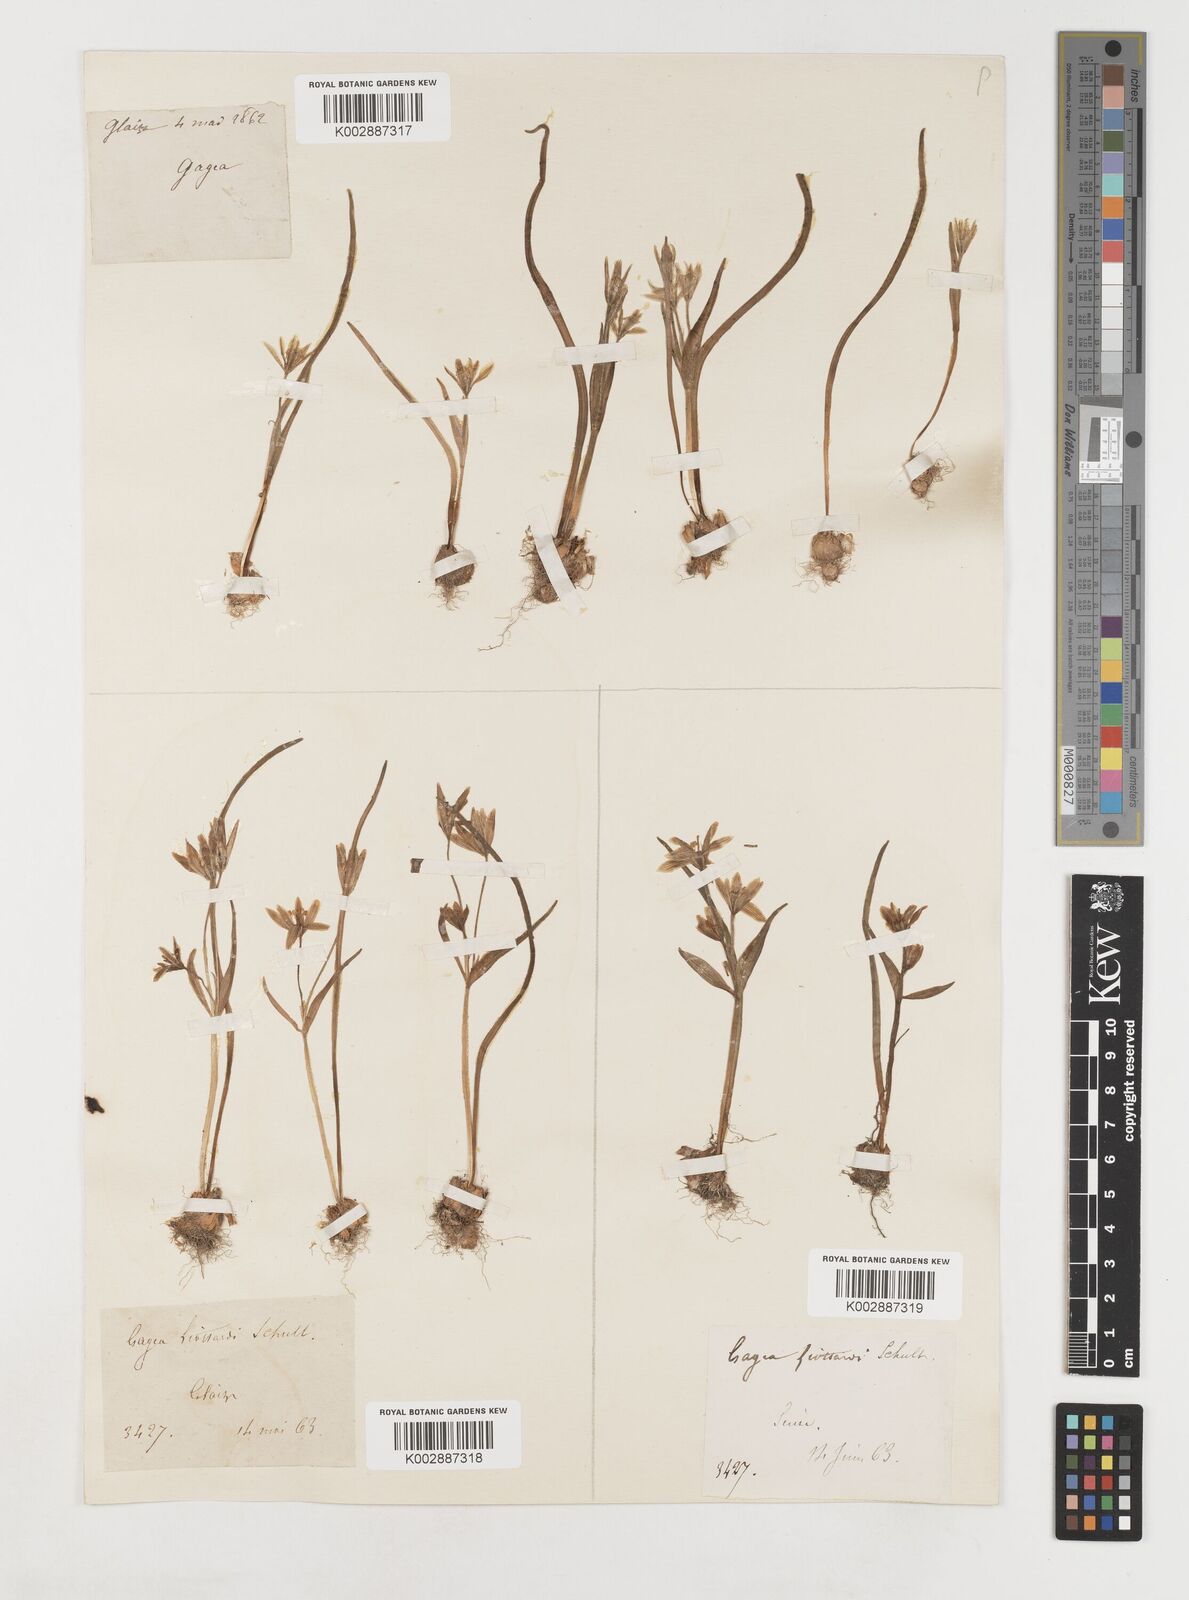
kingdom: Plantae
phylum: Tracheophyta
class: Liliopsida
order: Liliales
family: Liliaceae
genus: Gagea
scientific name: Gagea bohemica
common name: Early star-of-bethlehem
